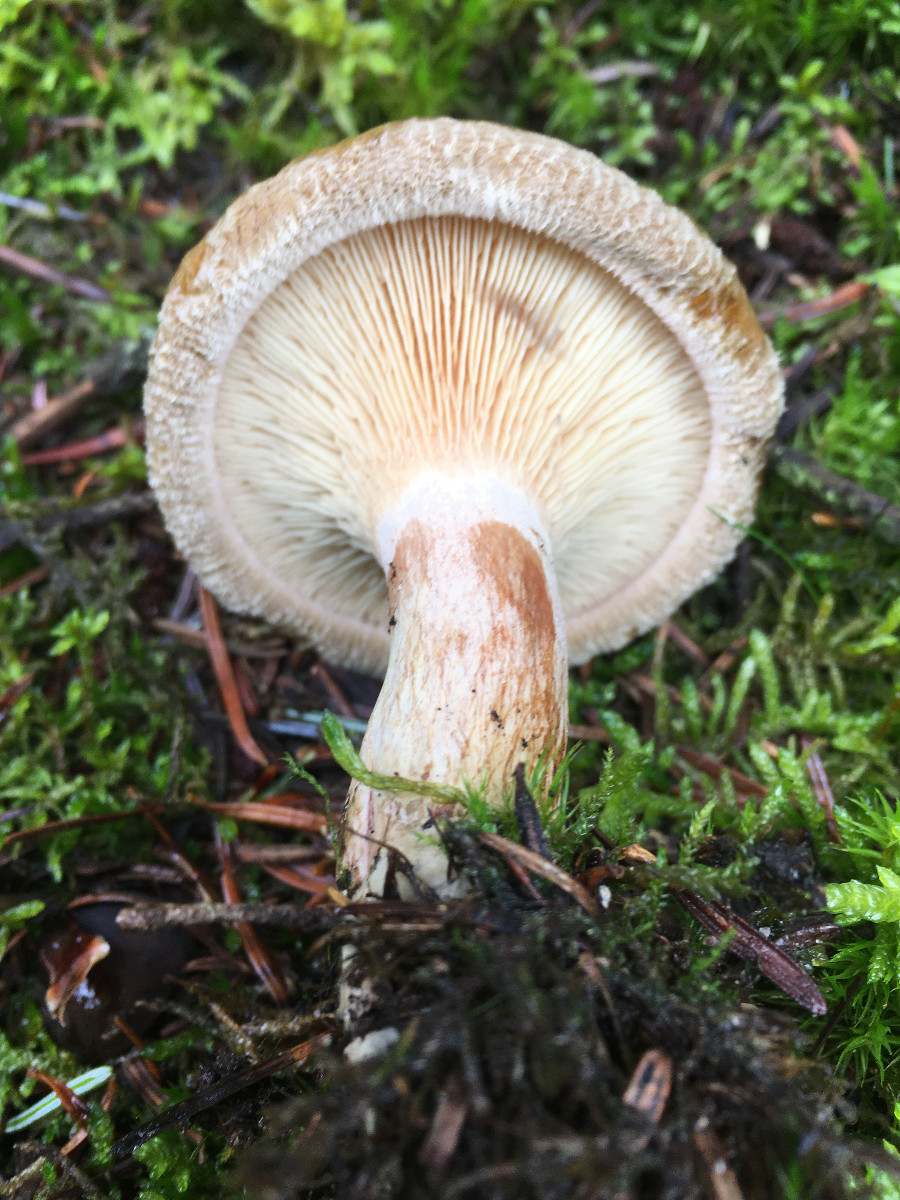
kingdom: Fungi
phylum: Basidiomycota
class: Agaricomycetes
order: Boletales
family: Paxillaceae
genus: Paxillus
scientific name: Paxillus involutus
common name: almindelig netbladhat
